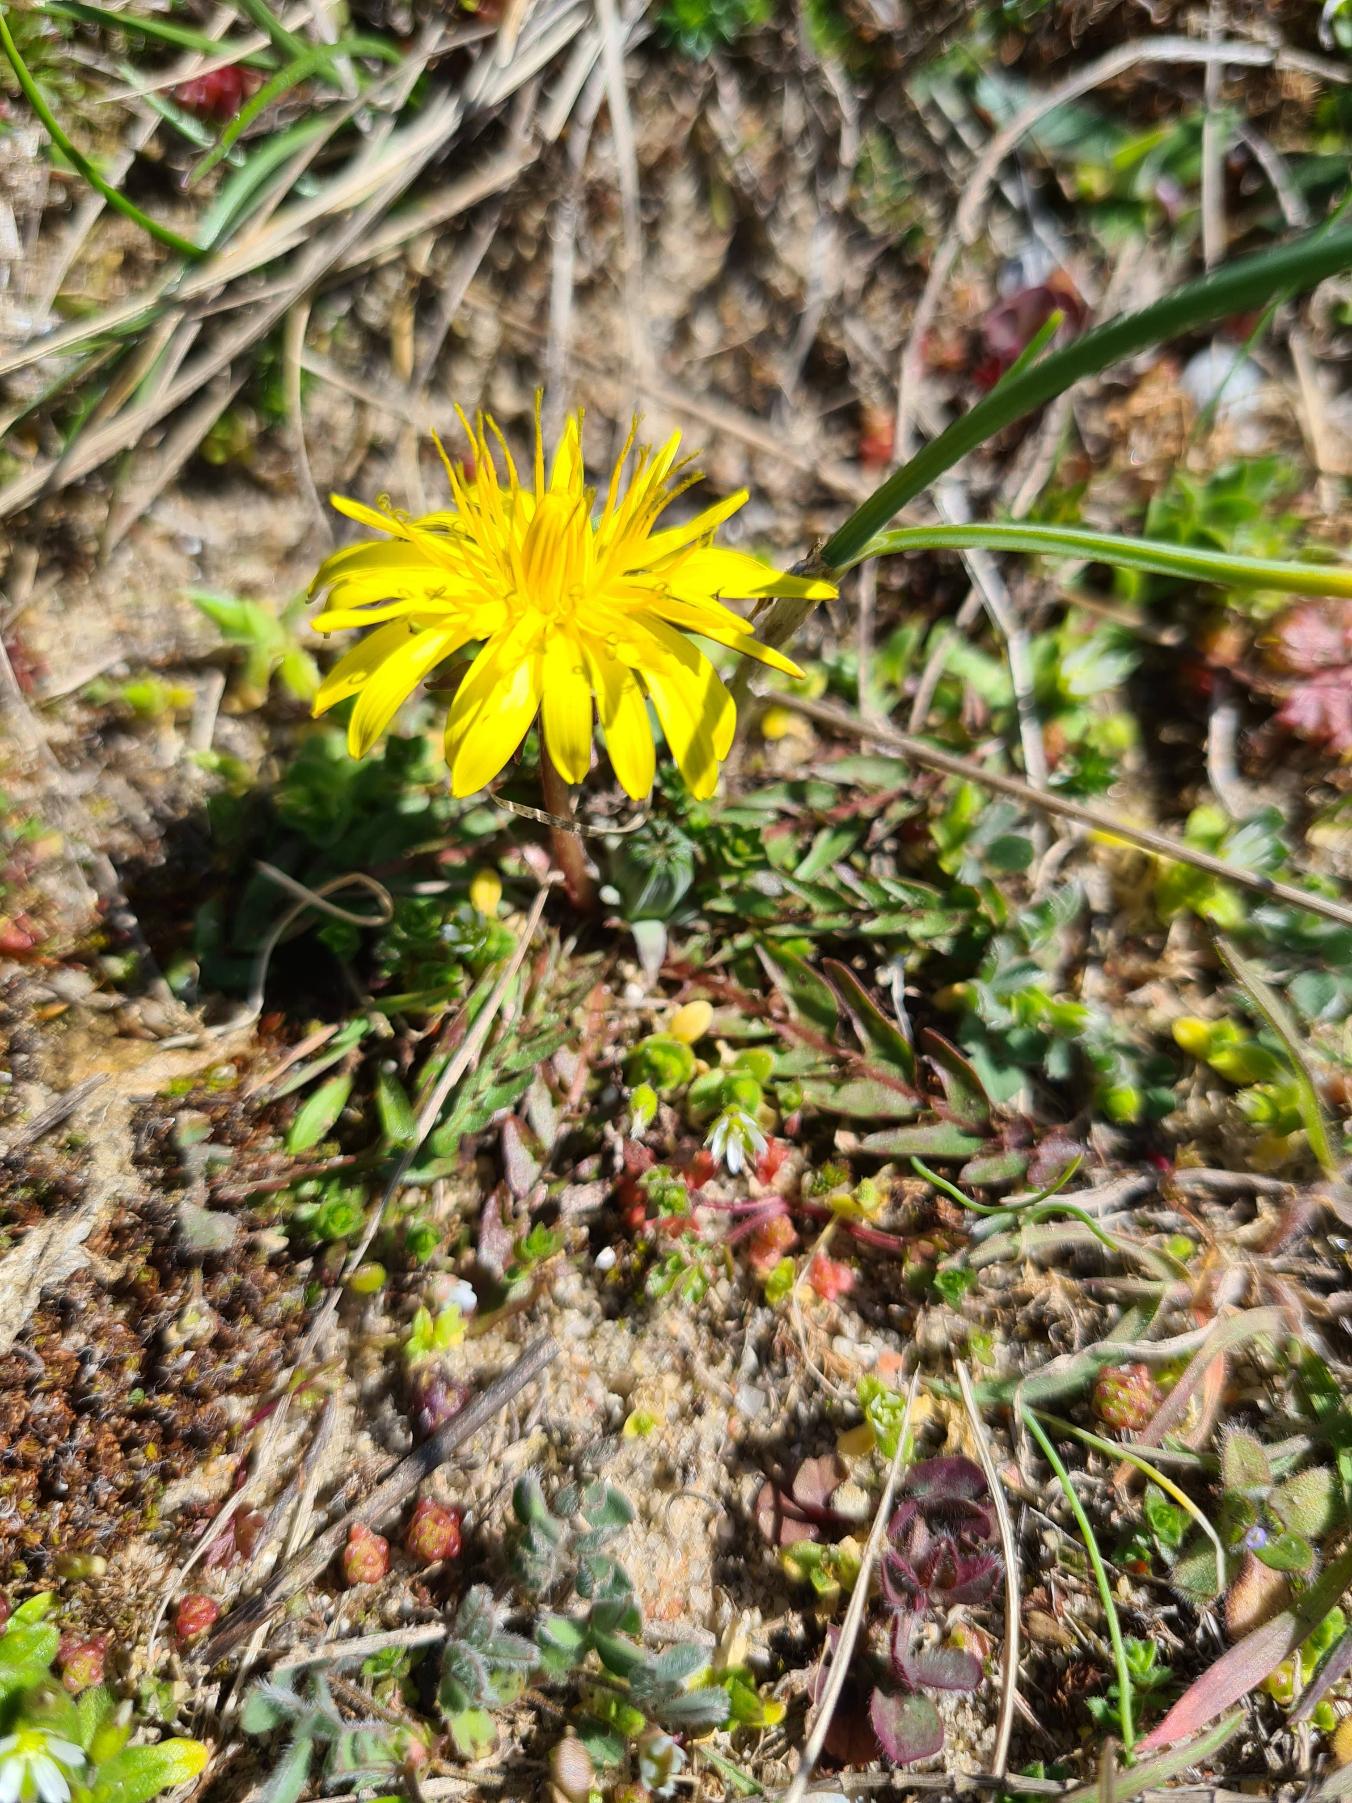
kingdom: Plantae
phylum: Tracheophyta
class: Magnoliopsida
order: Asterales
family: Asteraceae
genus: Taraxacum
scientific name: Taraxacum
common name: Mælkebøtteslægten
